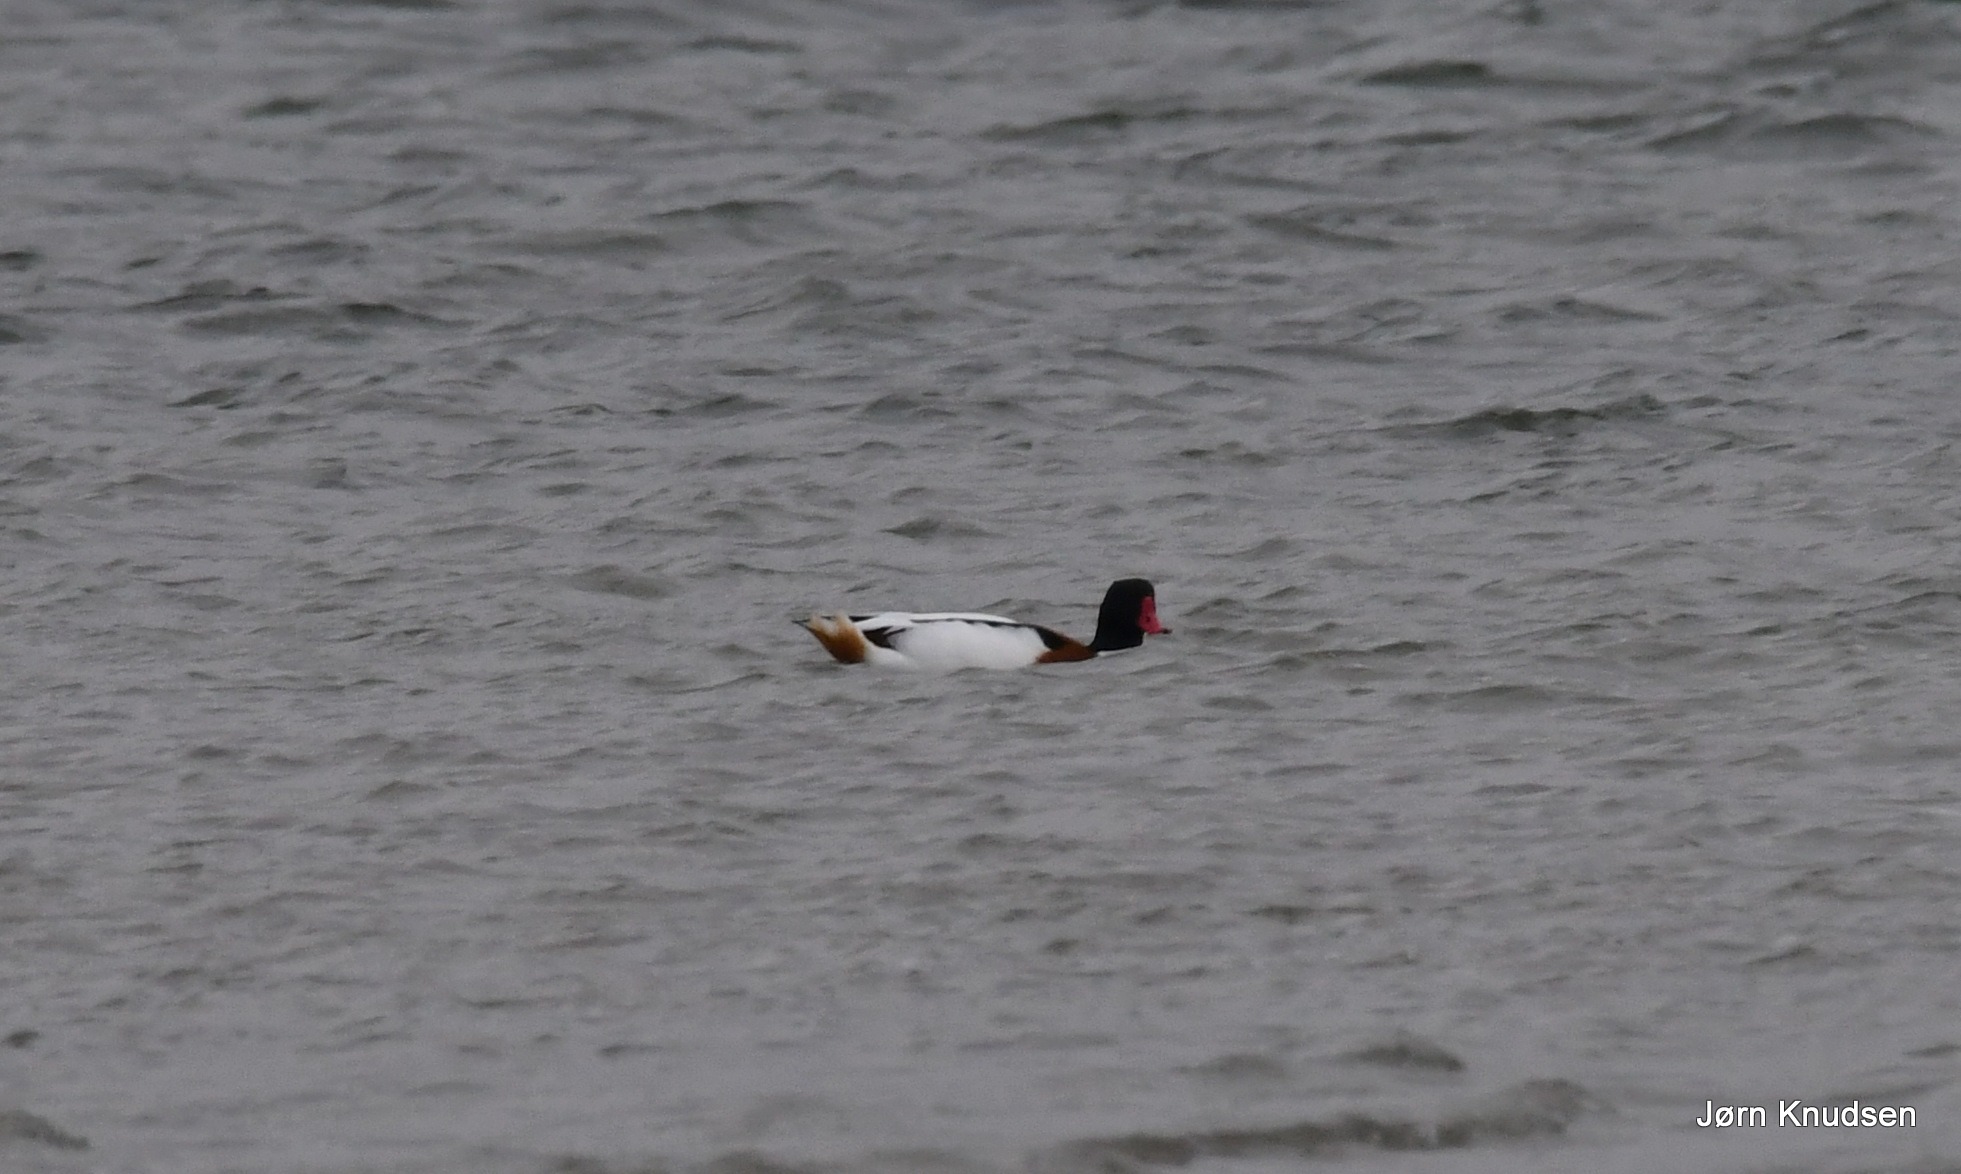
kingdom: Animalia
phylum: Chordata
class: Aves
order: Anseriformes
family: Anatidae
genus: Tadorna
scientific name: Tadorna tadorna
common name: Gravand
